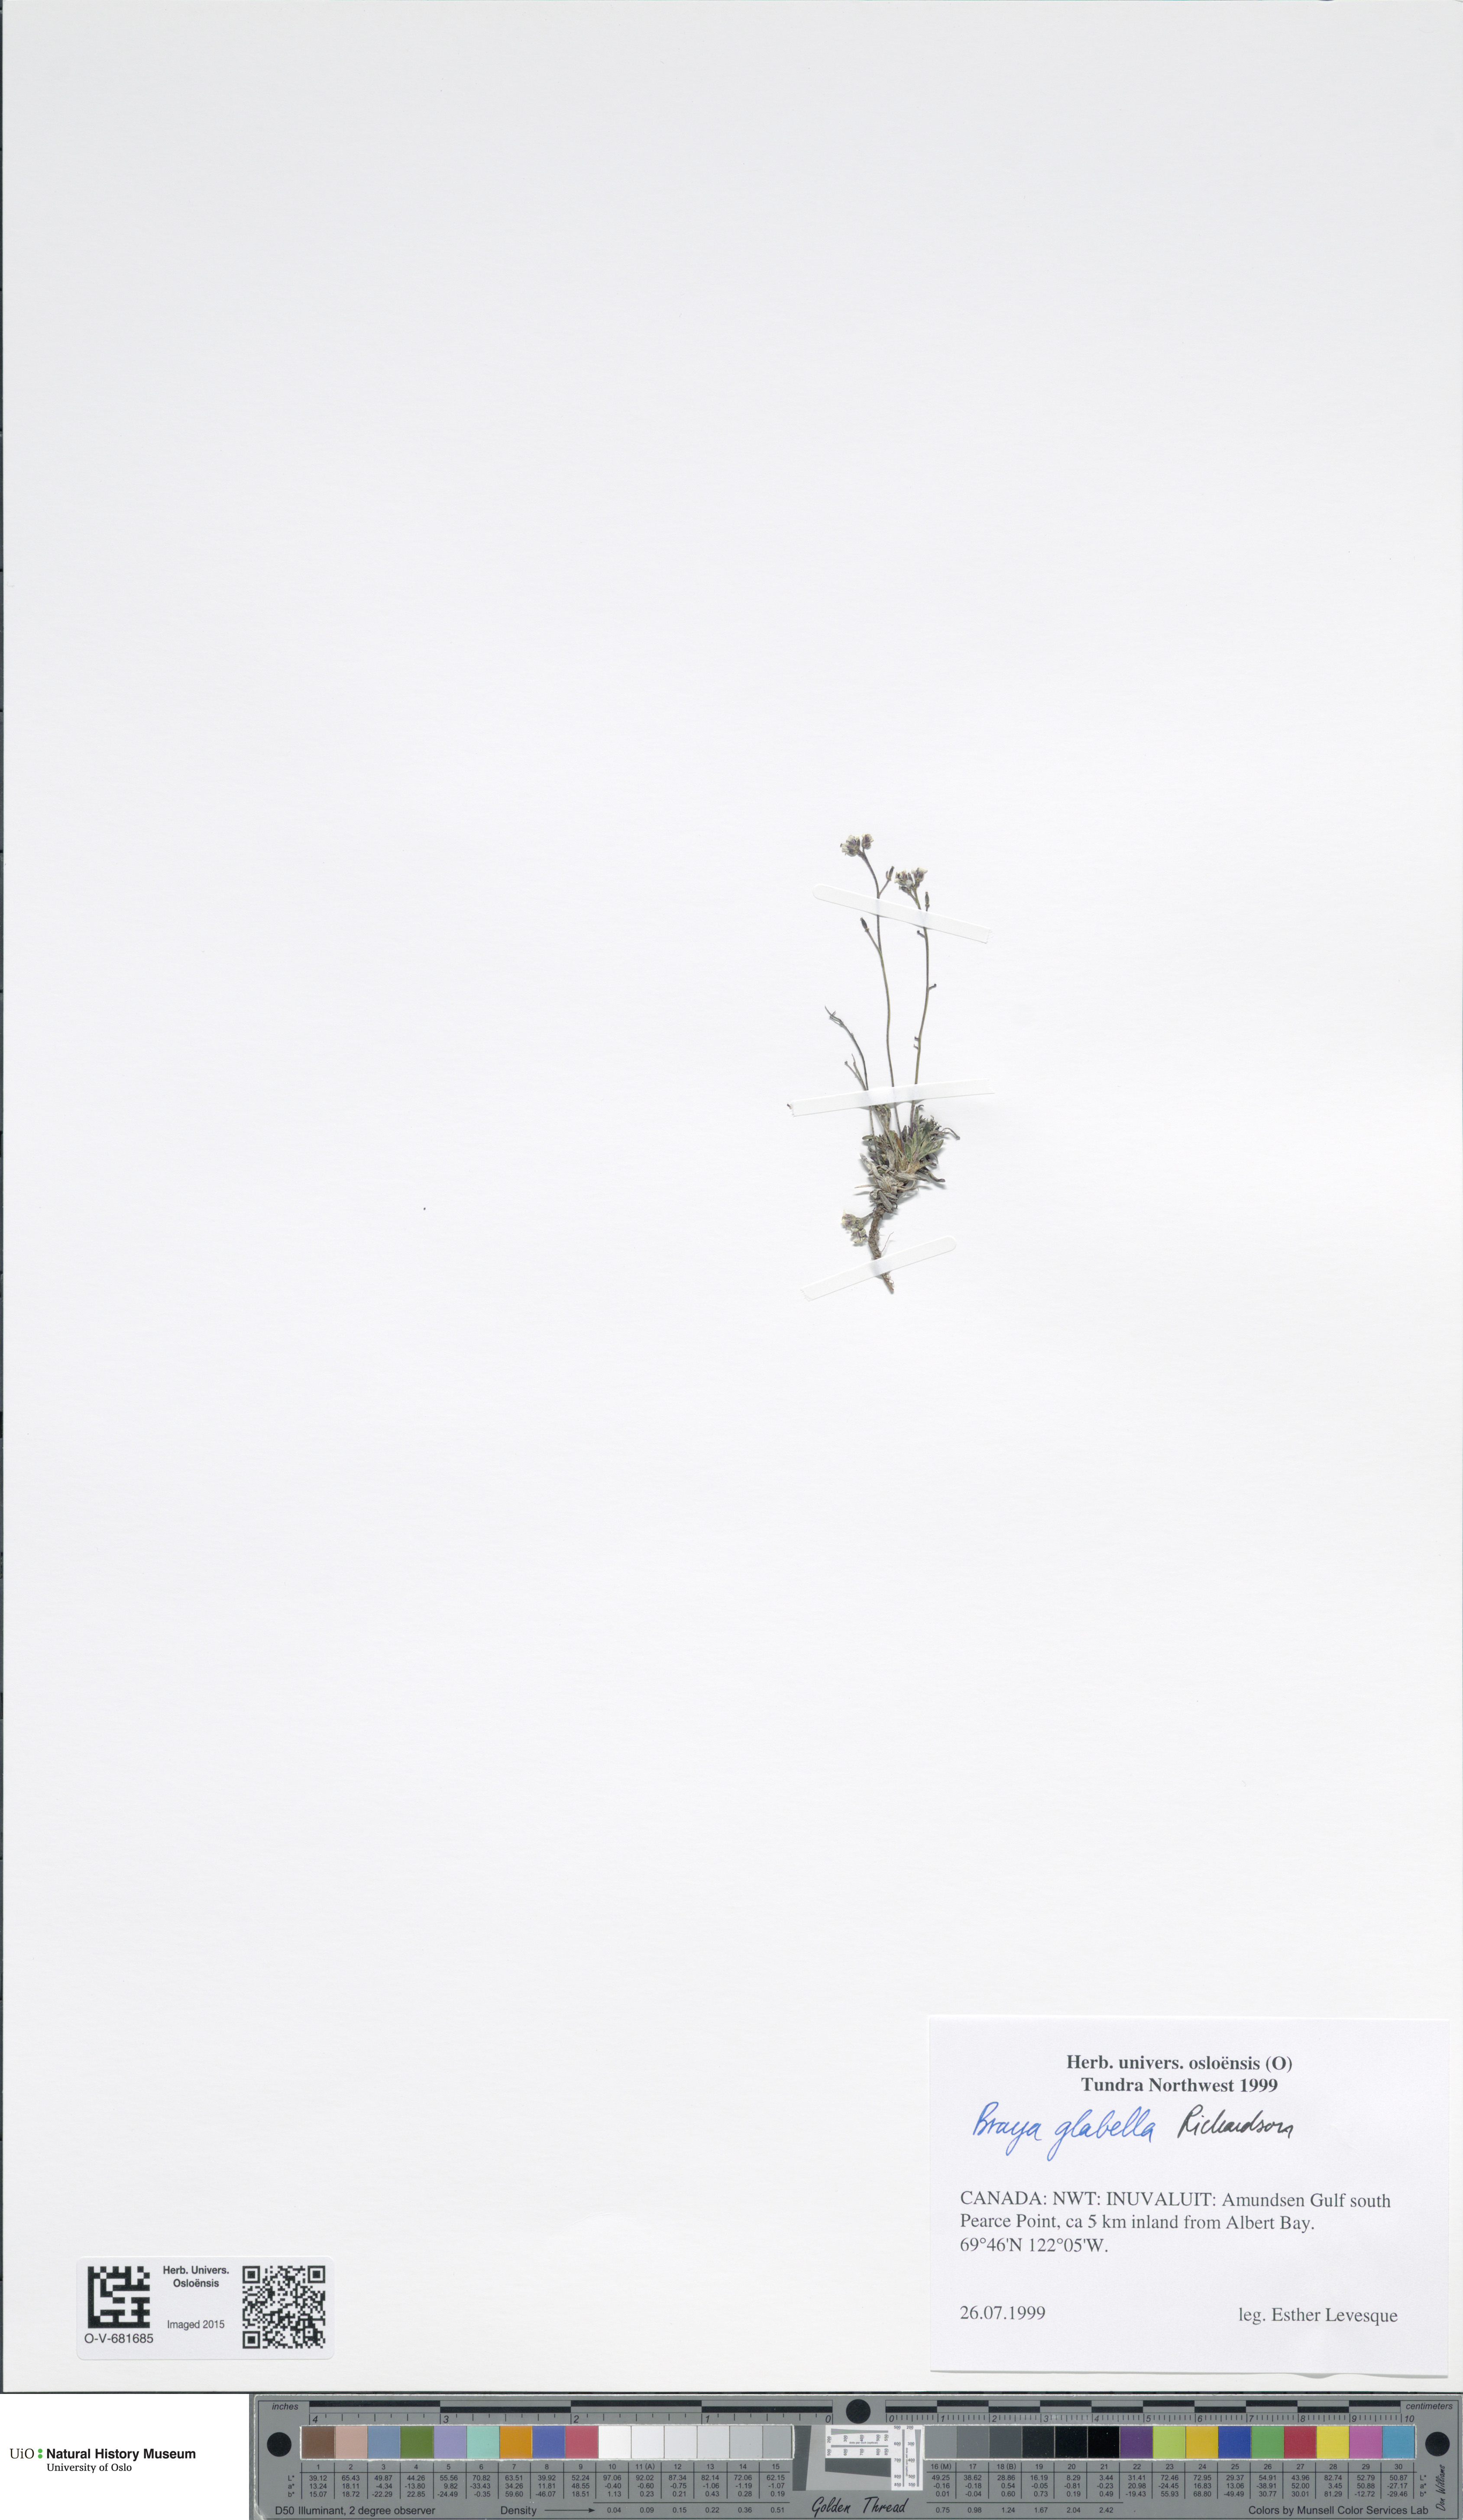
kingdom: Plantae
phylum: Tracheophyta
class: Magnoliopsida
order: Brassicales
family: Brassicaceae
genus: Braya
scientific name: Braya glabella
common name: Smooth braya
